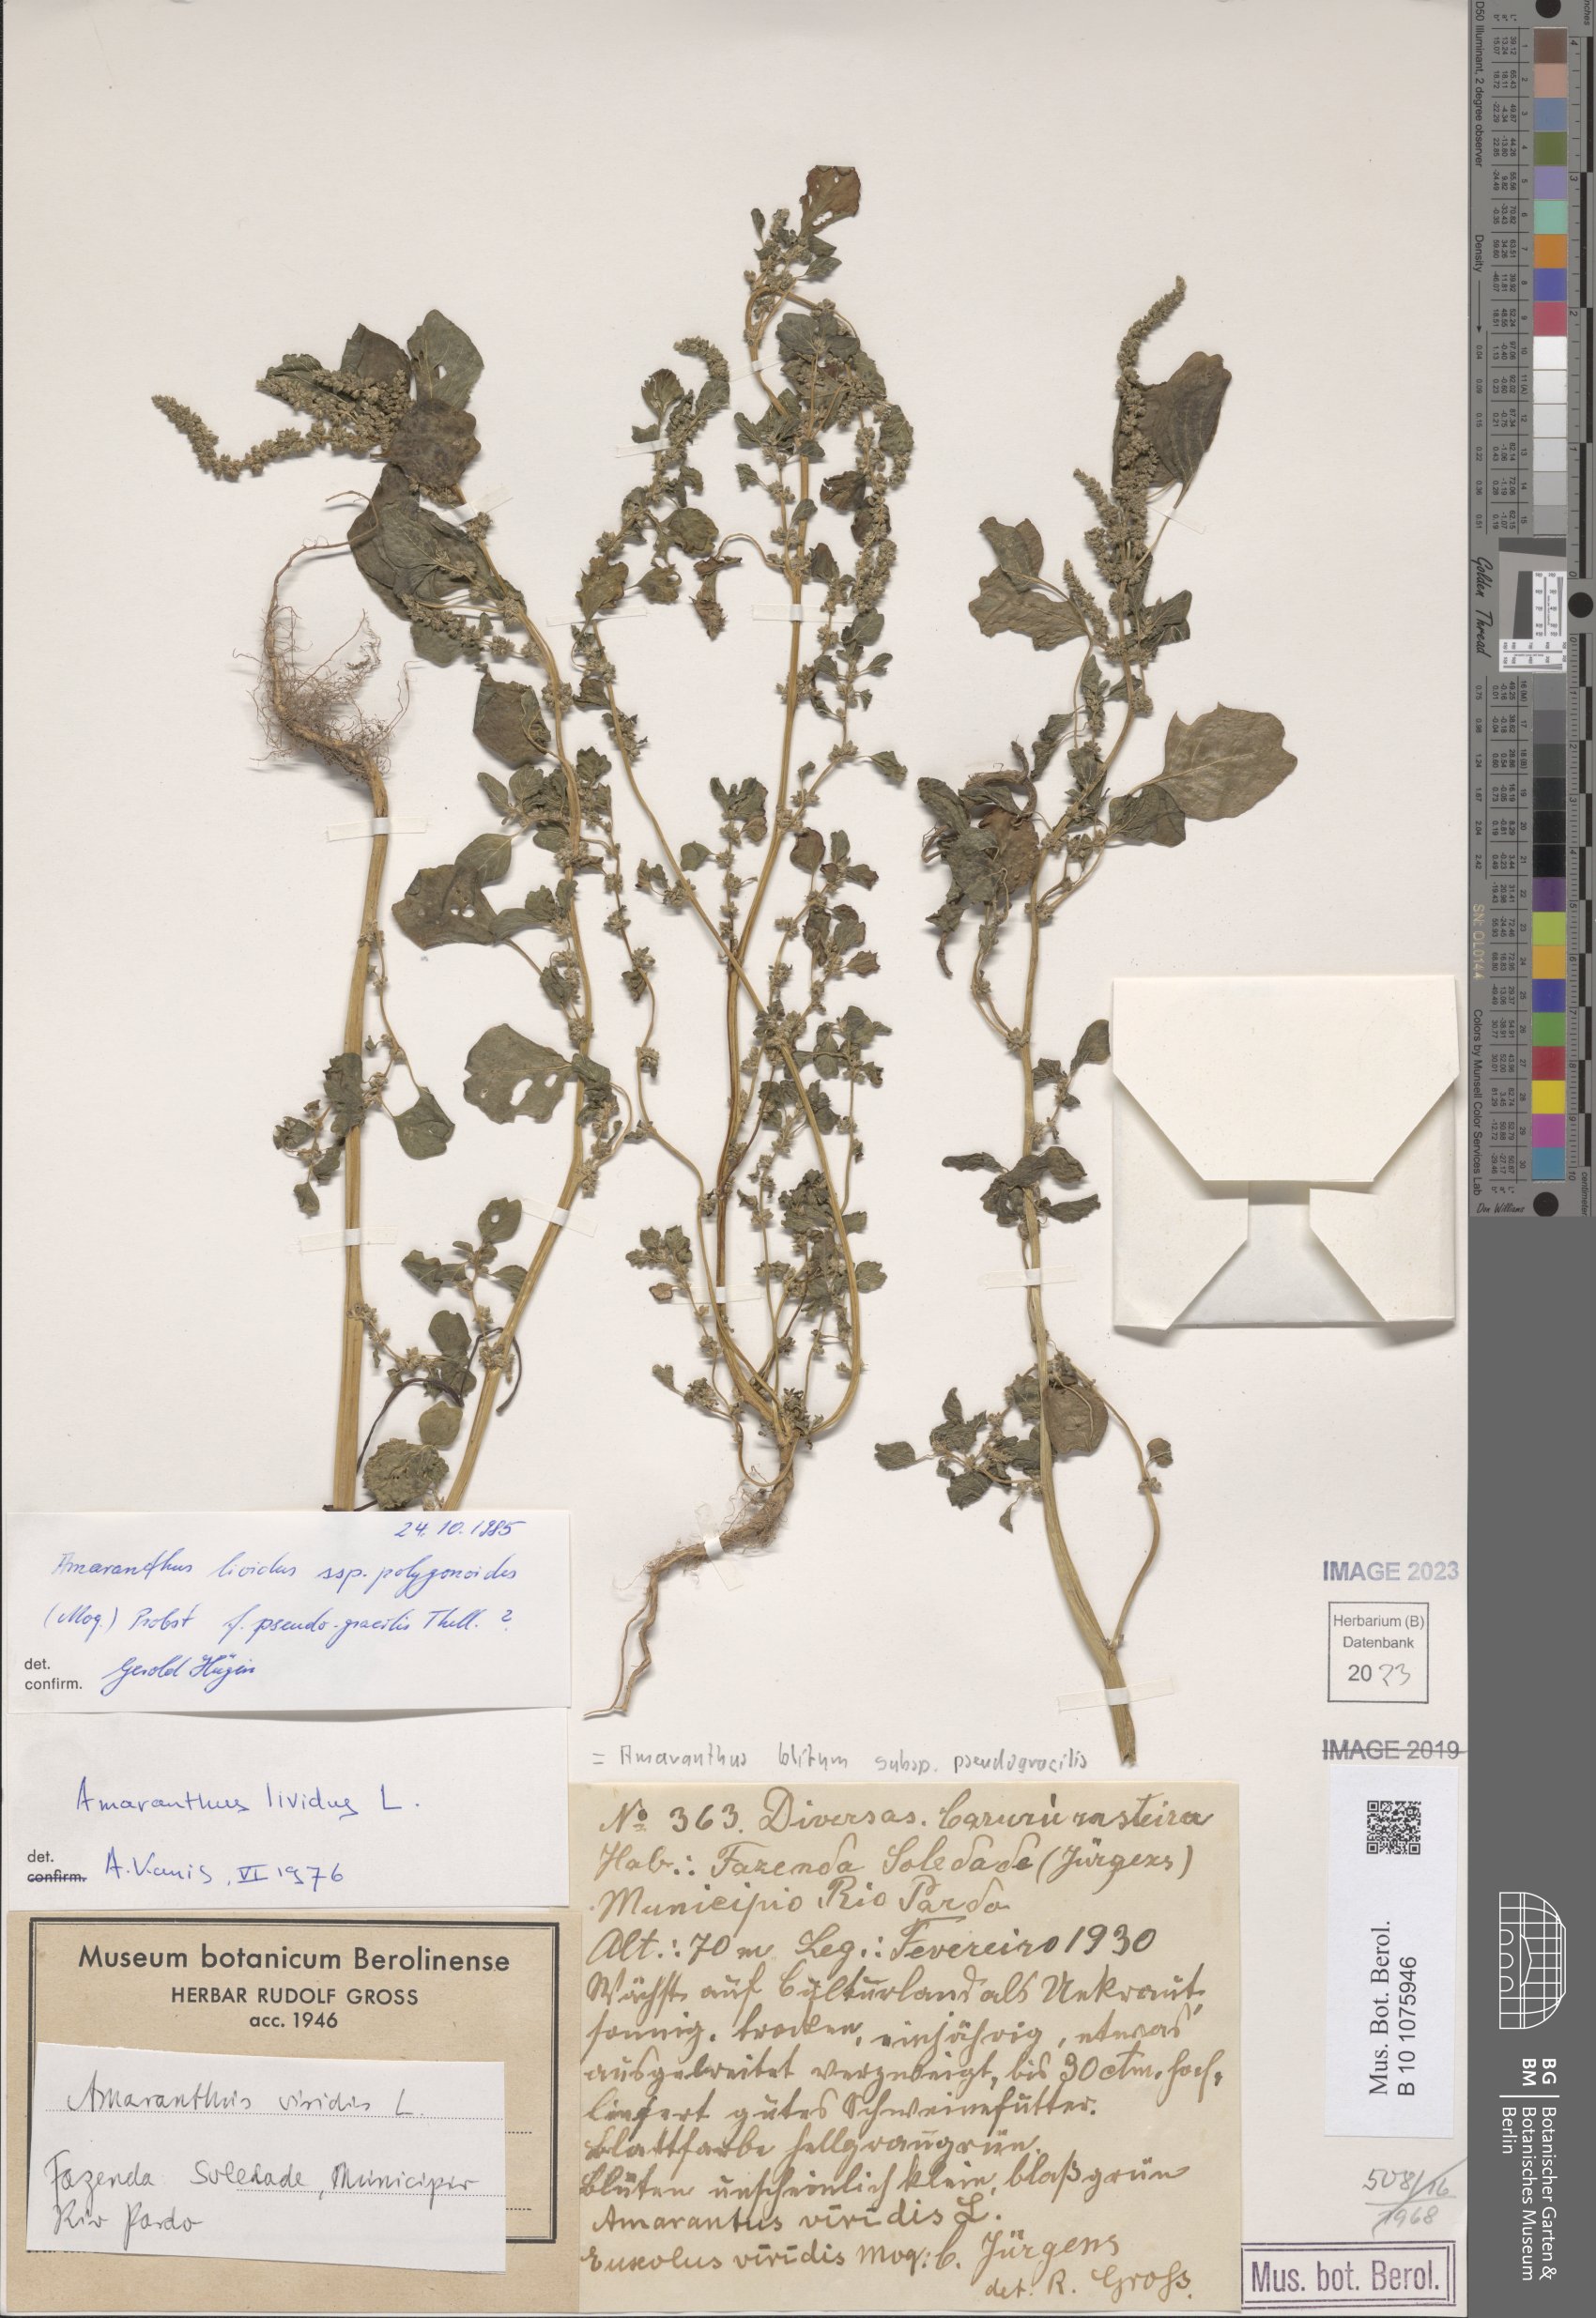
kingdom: Plantae
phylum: Tracheophyta
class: Magnoliopsida
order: Caryophyllales
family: Amaranthaceae
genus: Amaranthus
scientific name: Amaranthus emarginatus
